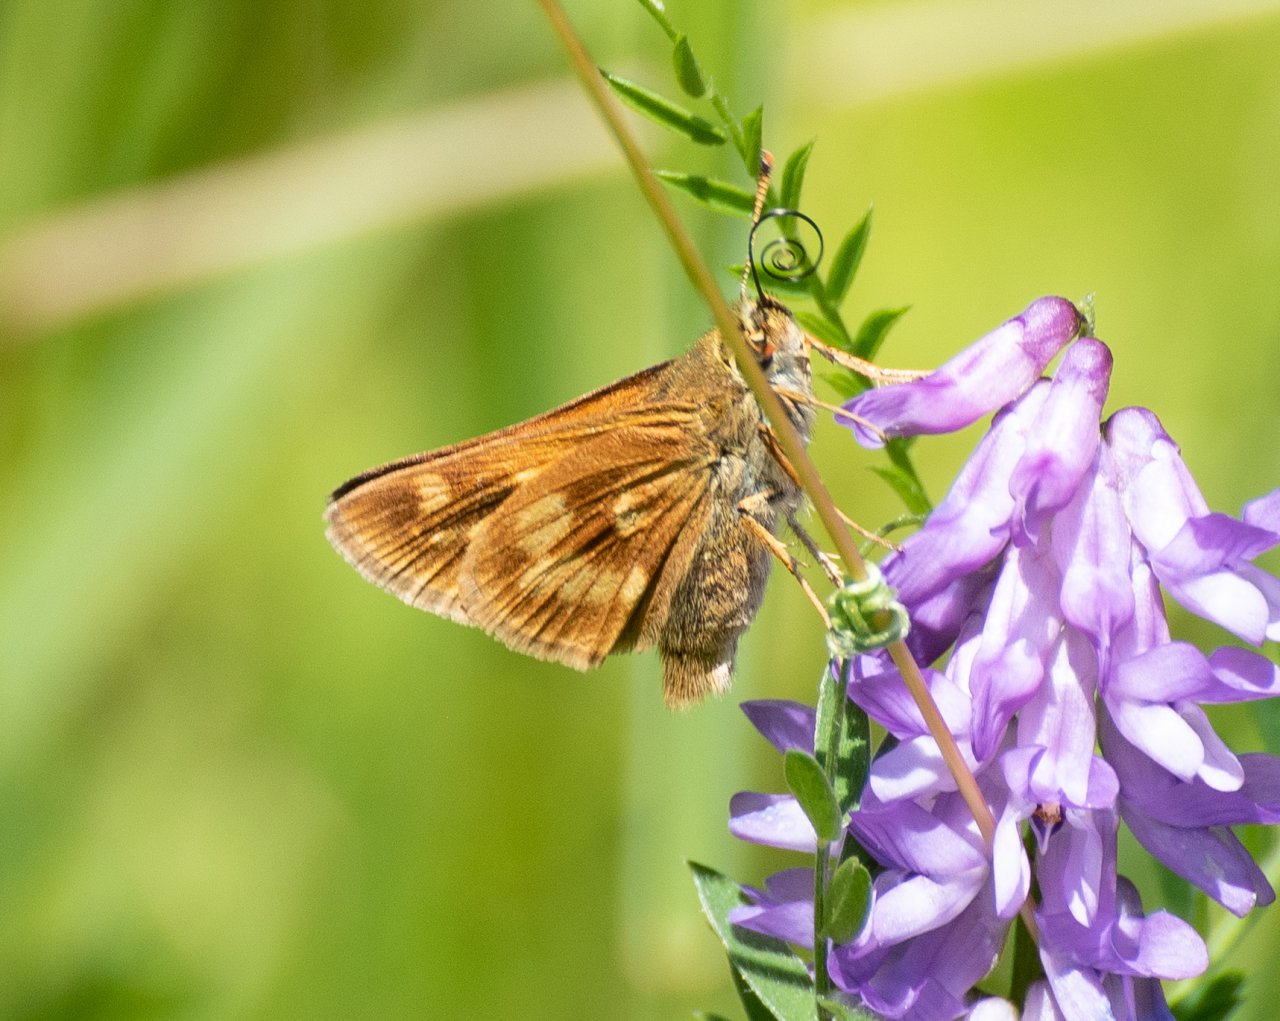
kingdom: Animalia
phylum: Arthropoda
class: Insecta
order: Lepidoptera
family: Hesperiidae
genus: Polites
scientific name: Polites
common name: Long Dash Skipper
